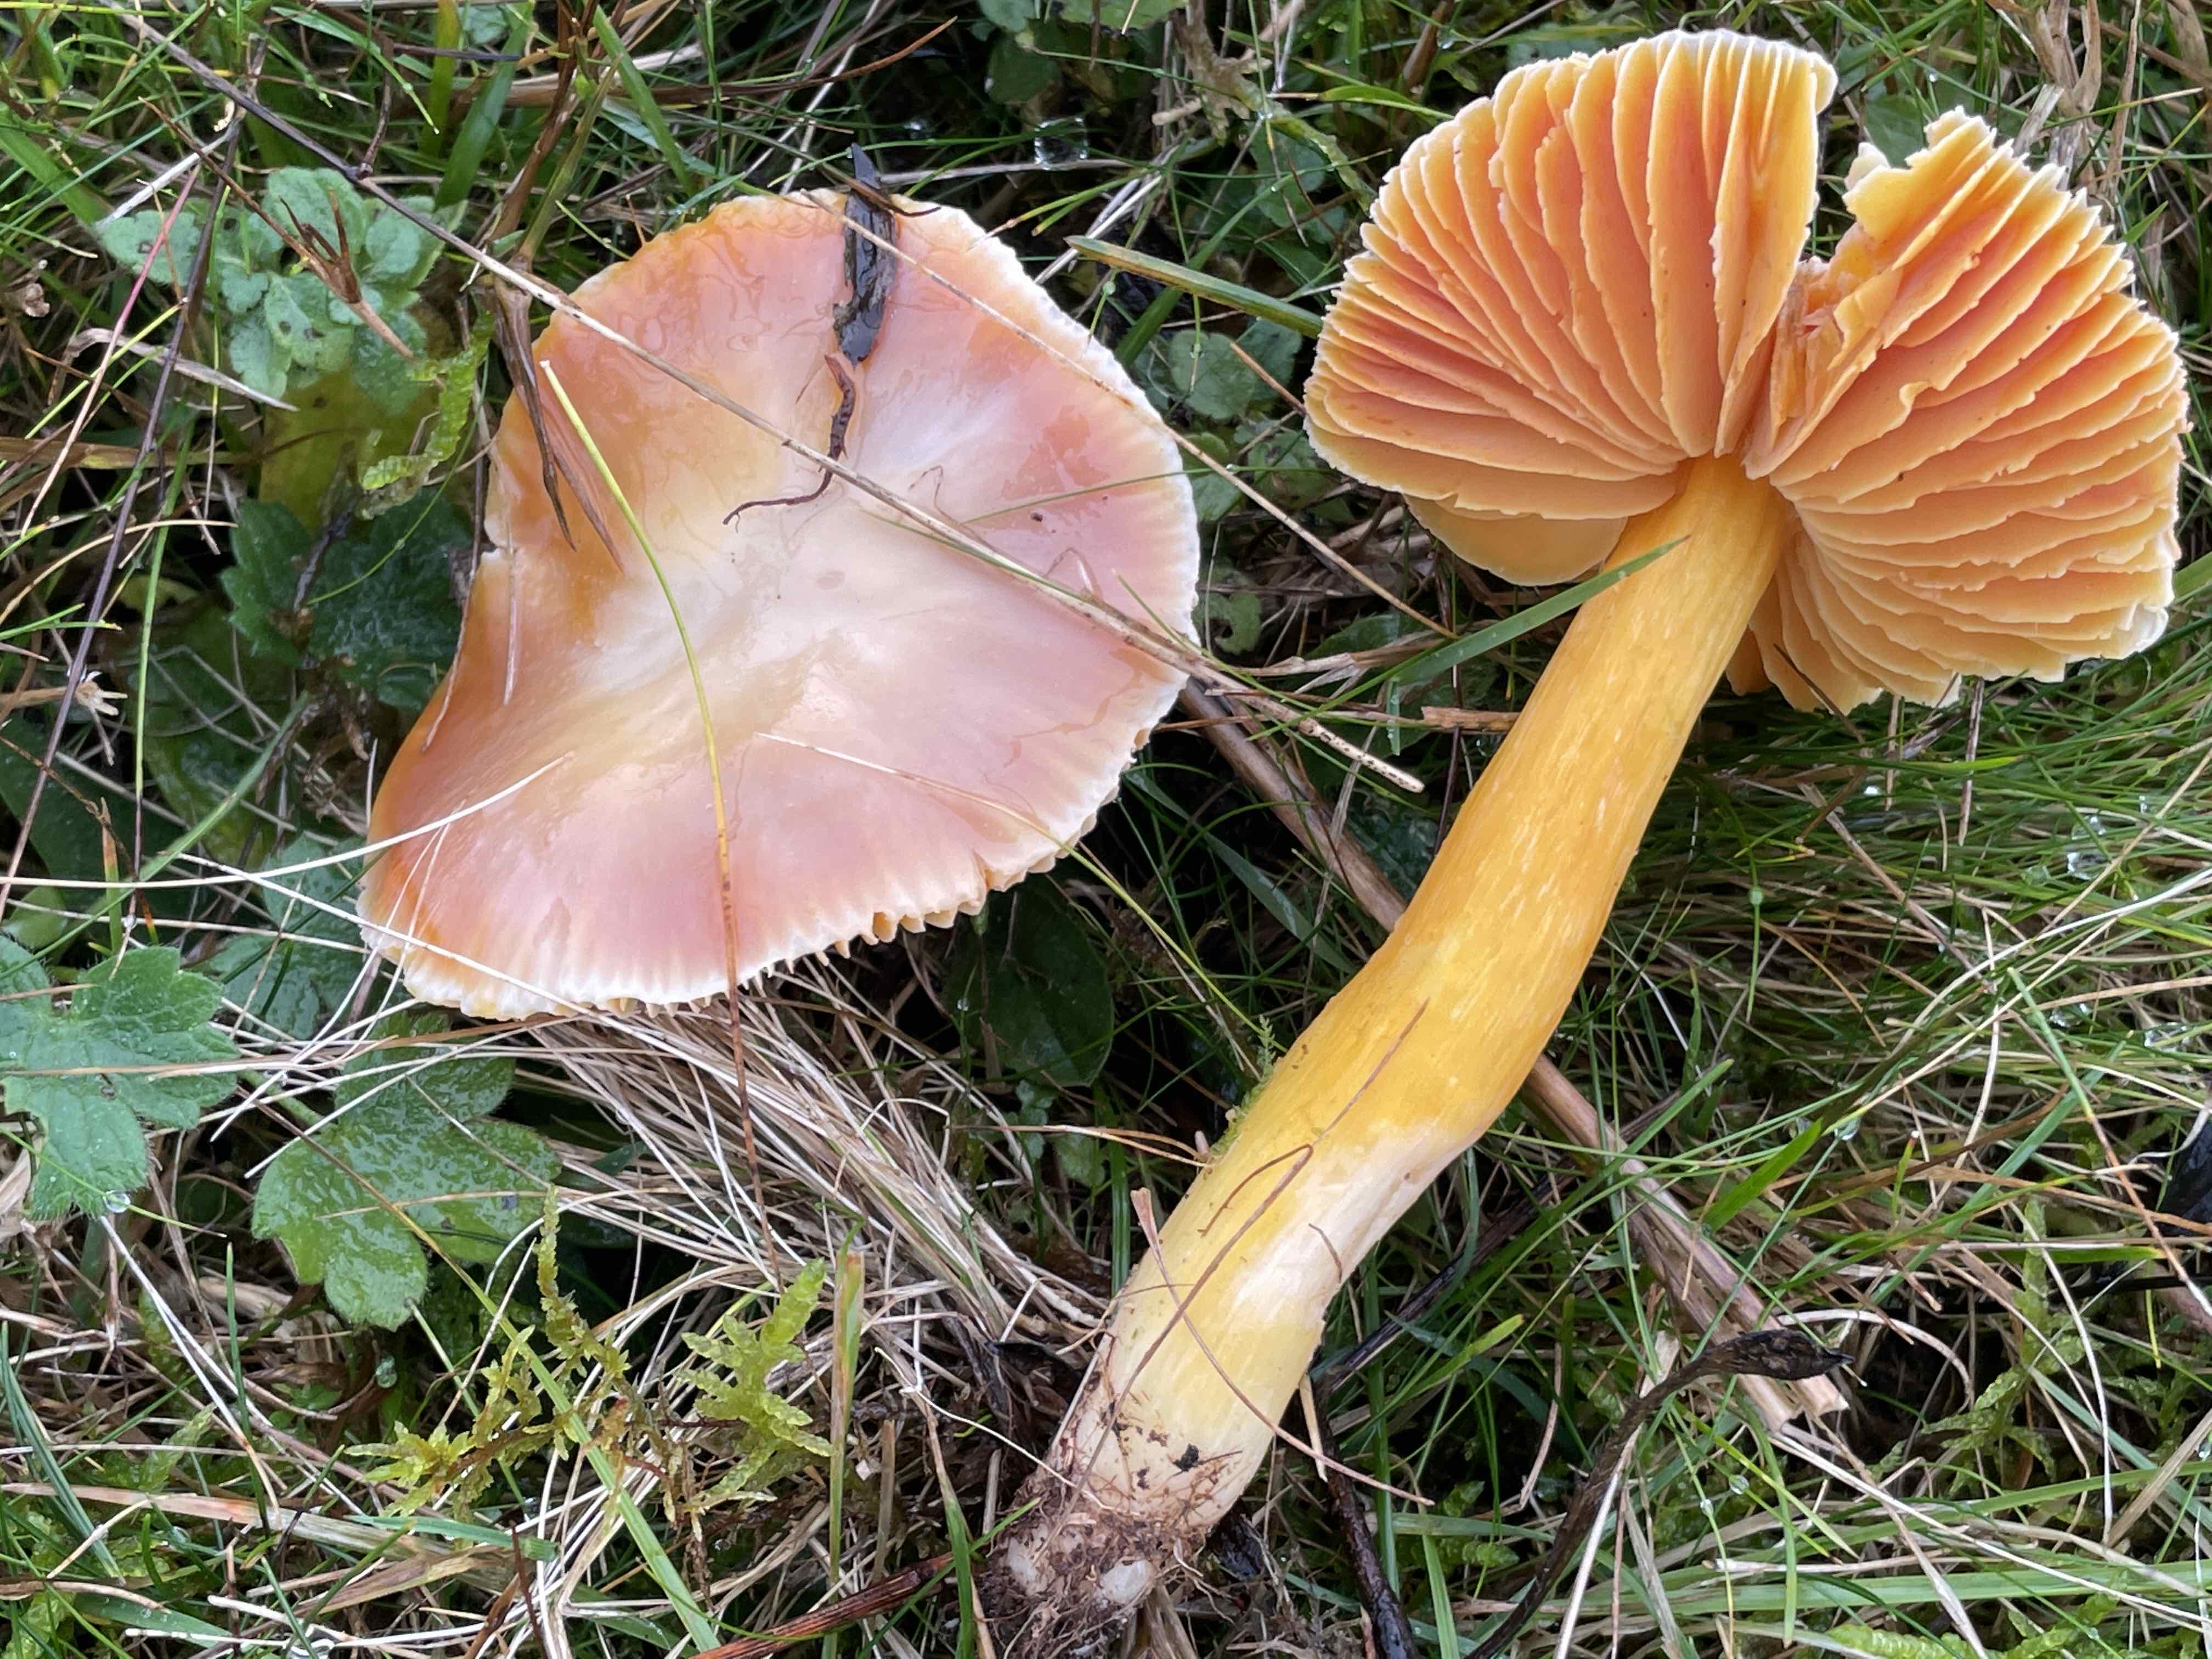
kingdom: Fungi
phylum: Basidiomycota
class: Agaricomycetes
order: Agaricales
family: Hygrophoraceae
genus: Hygrocybe
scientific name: Hygrocybe punicea
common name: skarlagen-vokshat
